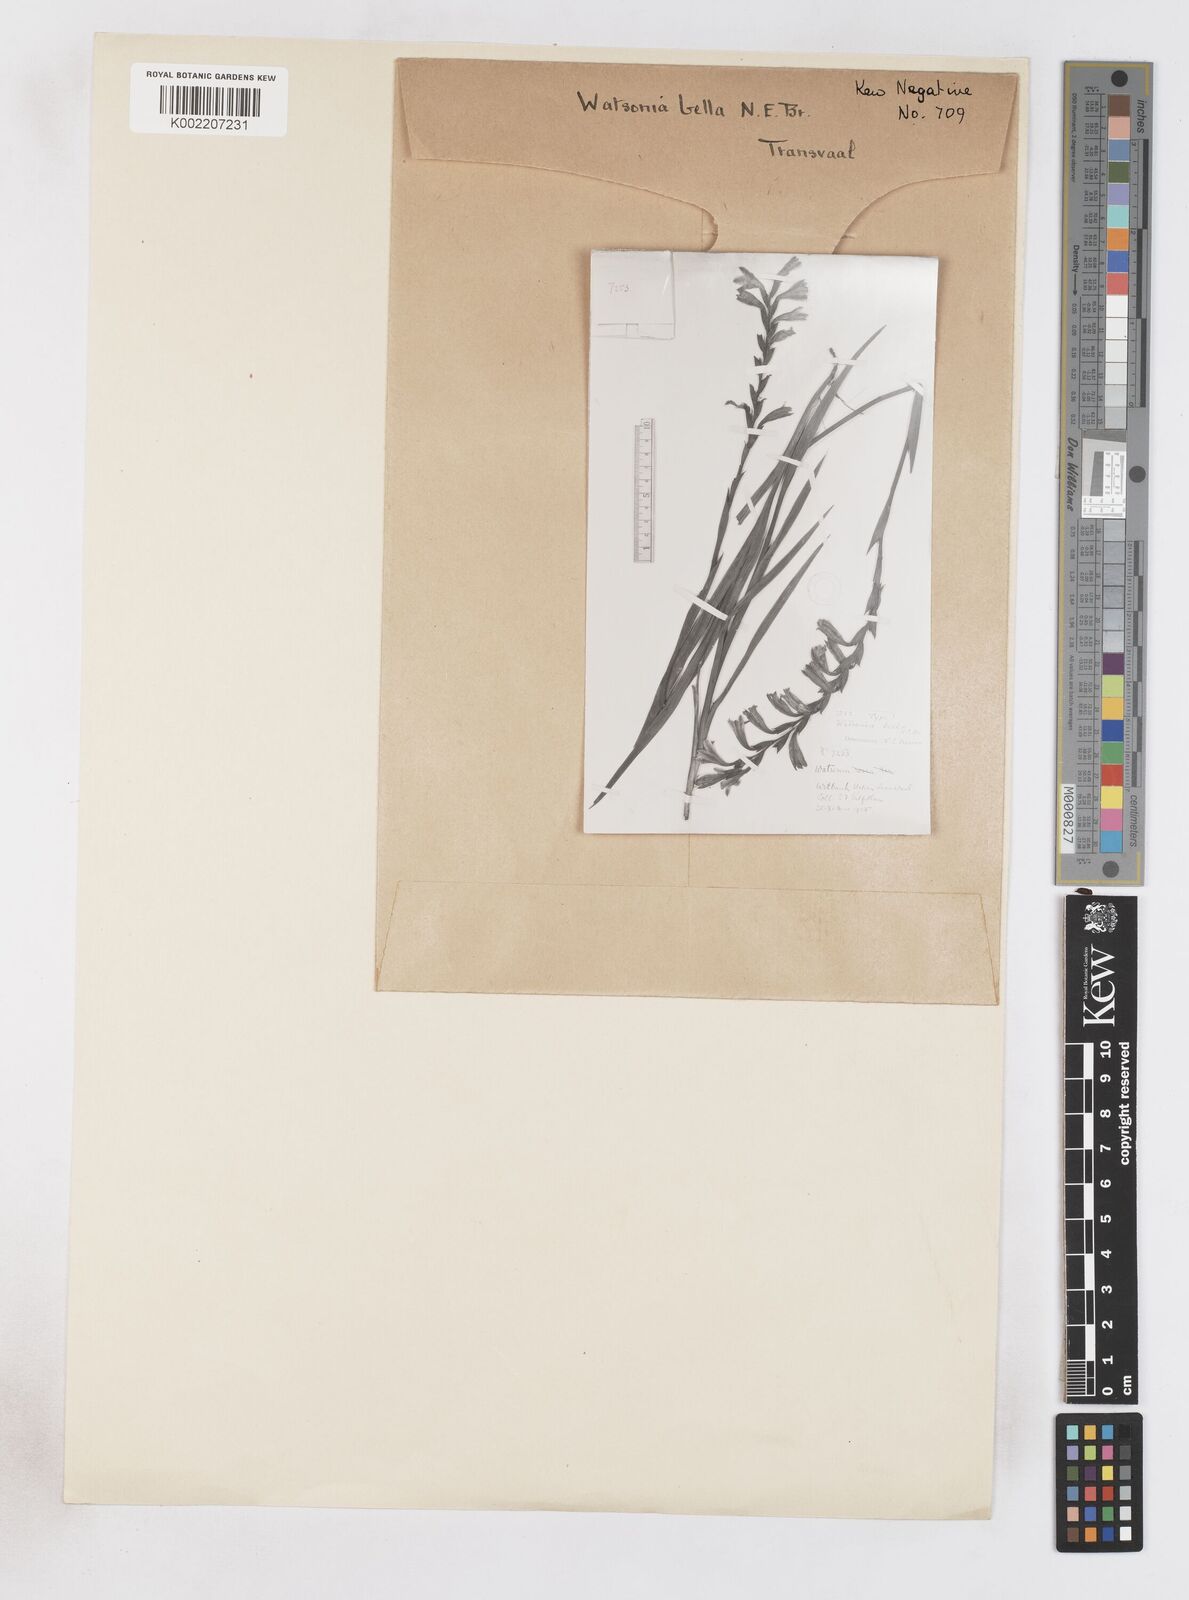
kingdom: Plantae
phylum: Tracheophyta
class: Liliopsida
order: Asparagales
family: Iridaceae
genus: Watsonia
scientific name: Watsonia bella
